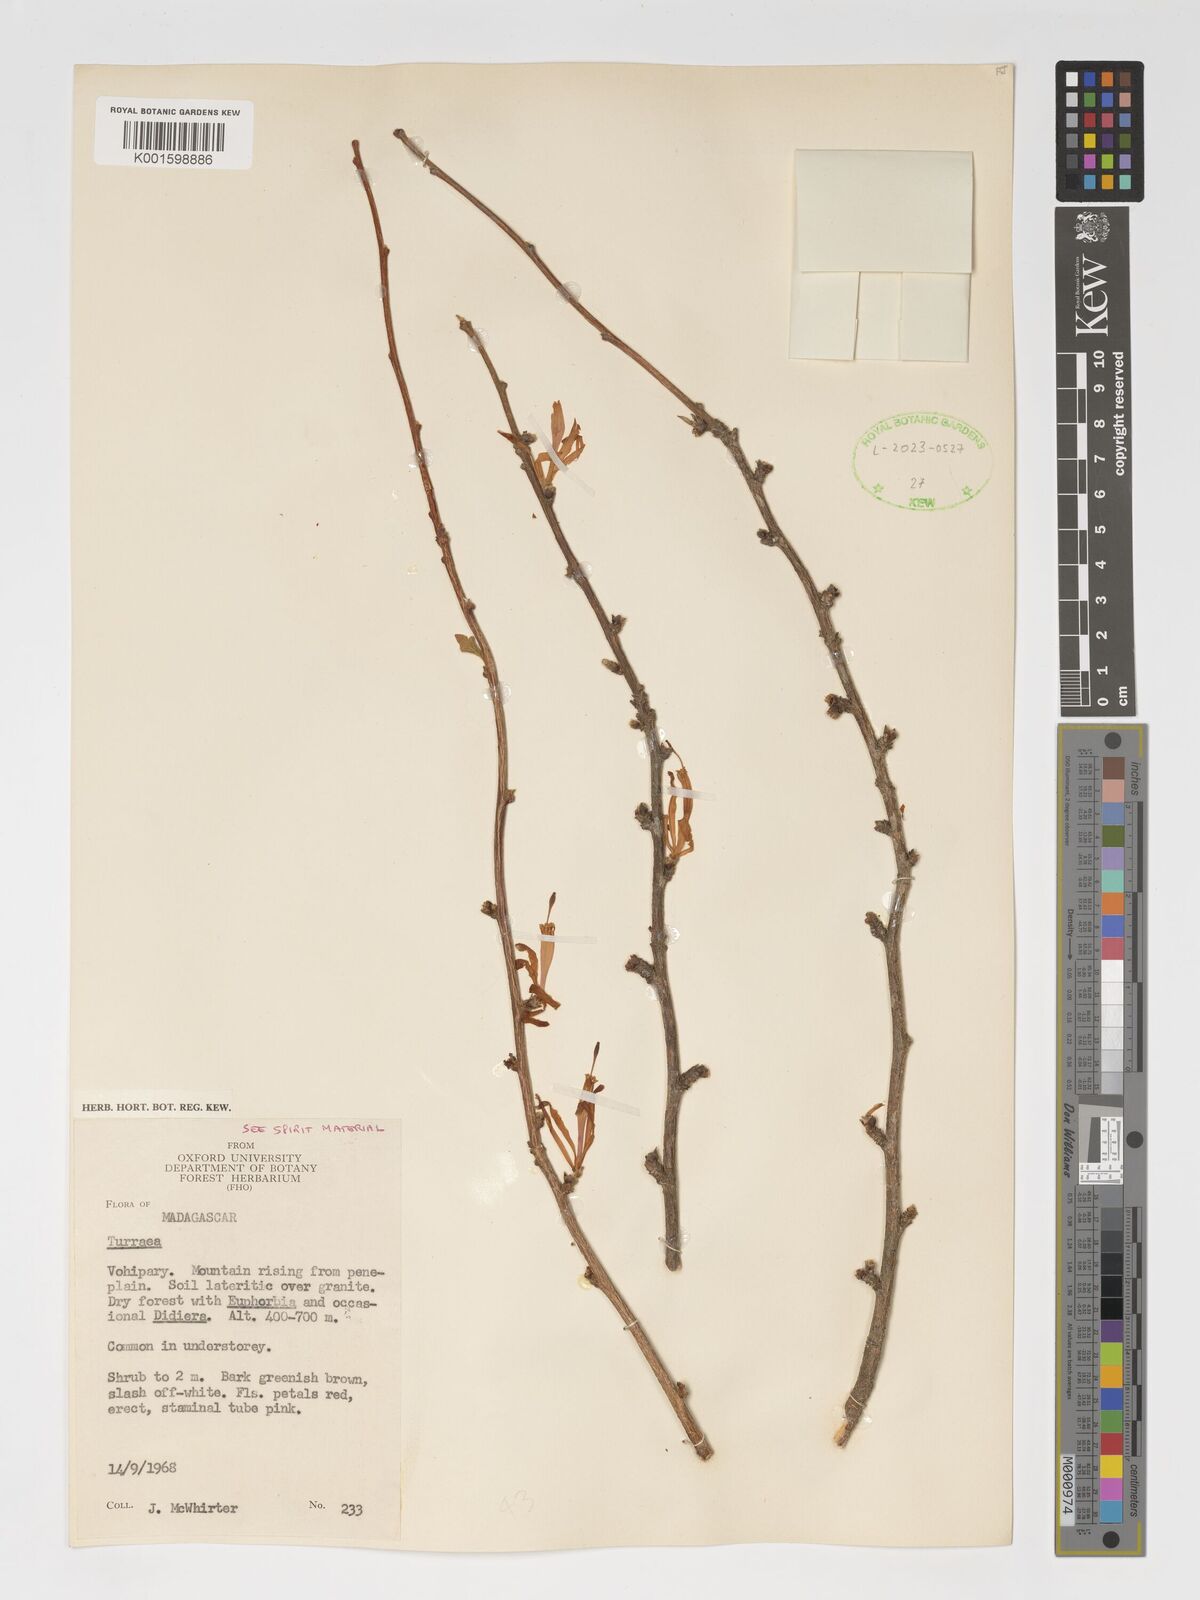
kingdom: Plantae
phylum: Tracheophyta
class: Magnoliopsida
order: Sapindales
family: Meliaceae
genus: Turraea
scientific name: Turraea
